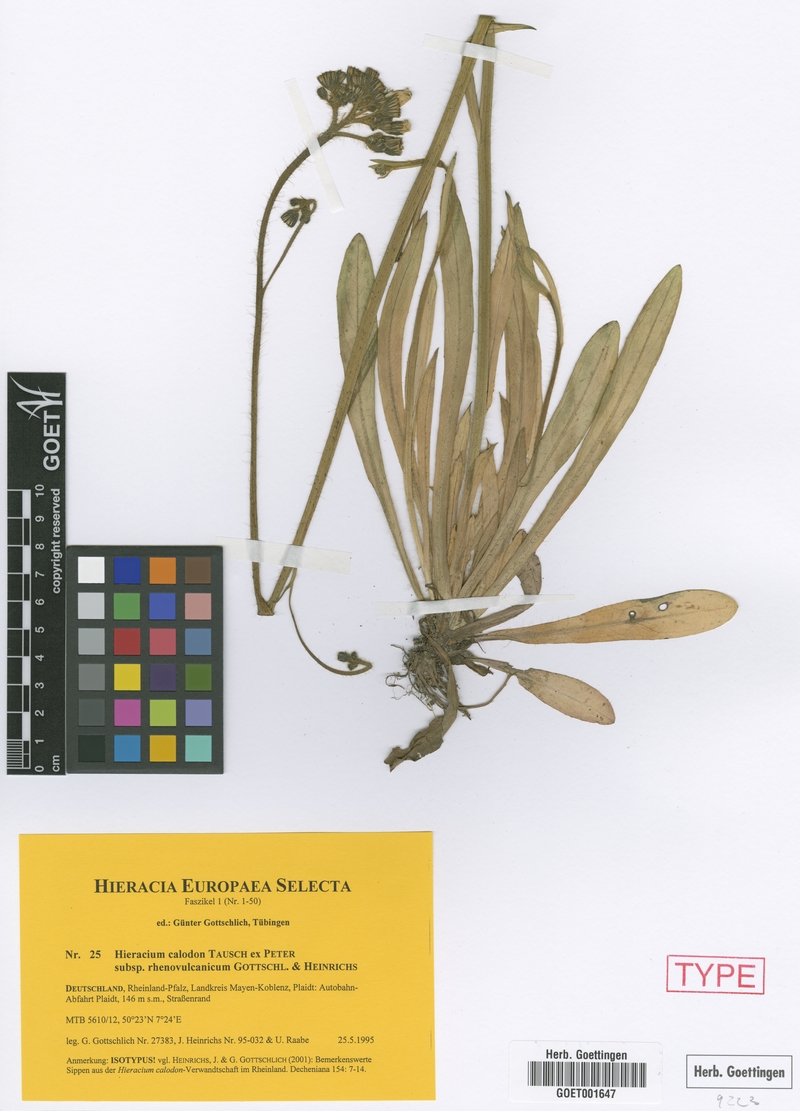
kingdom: Plantae
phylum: Tracheophyta
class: Magnoliopsida
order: Asterales
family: Asteraceae
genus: Pilosella
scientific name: Pilosella calodon
